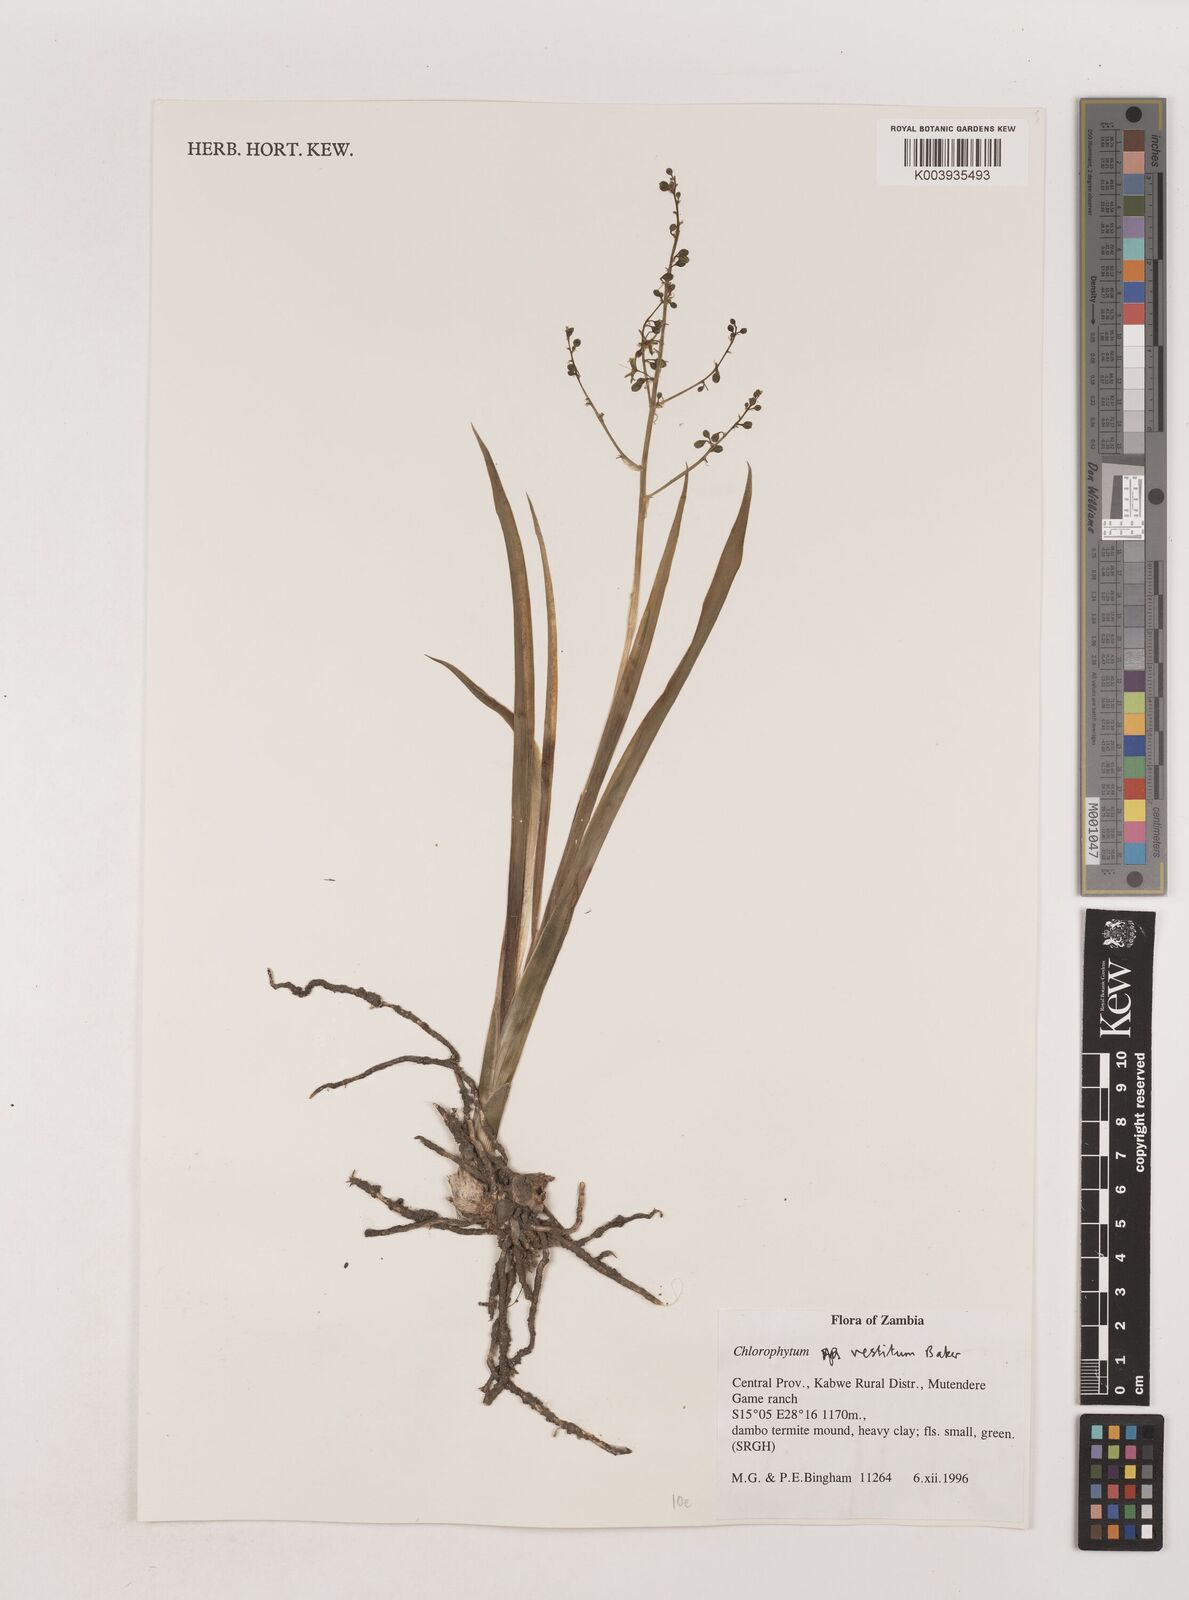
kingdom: Plantae
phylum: Tracheophyta
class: Liliopsida
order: Asparagales
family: Asparagaceae
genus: Chlorophytum
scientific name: Chlorophytum vestitum
